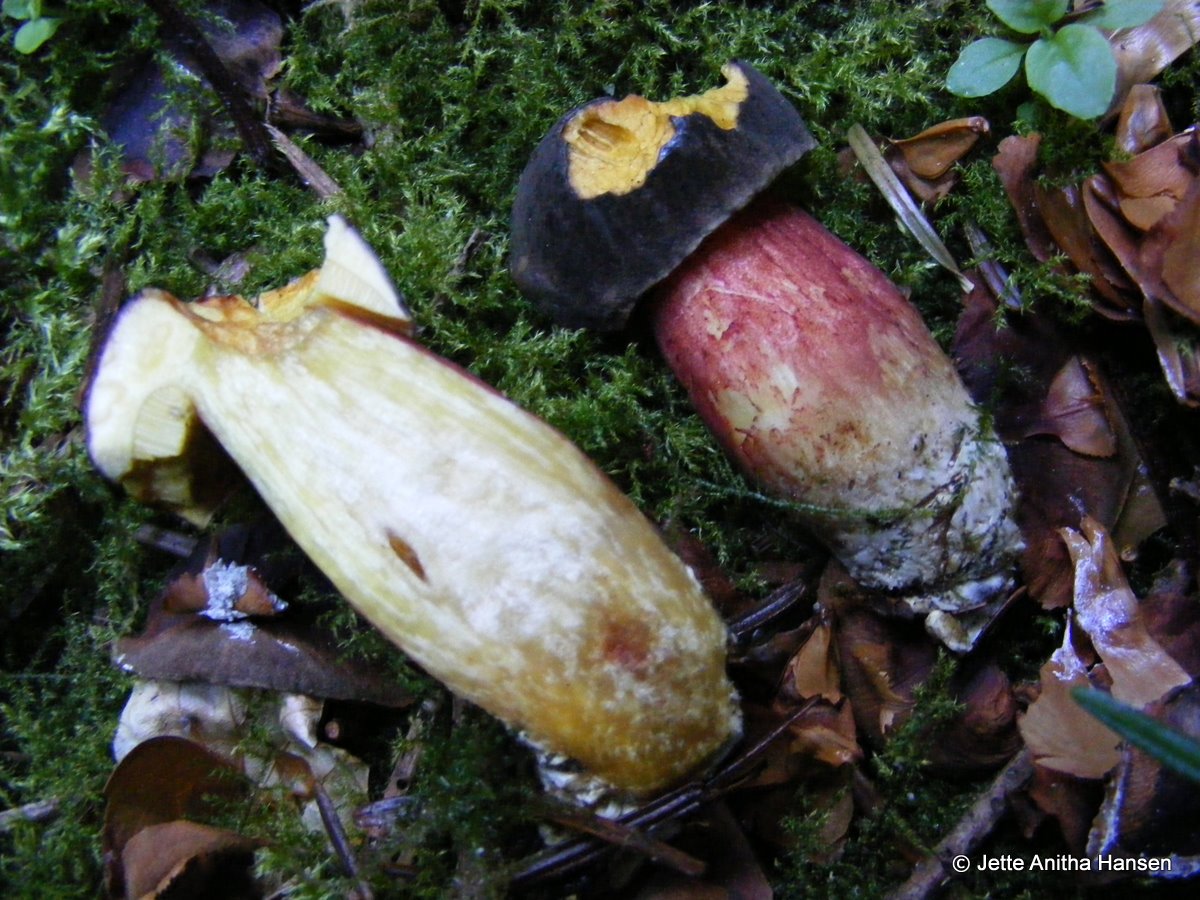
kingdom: Fungi
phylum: Basidiomycota
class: Agaricomycetes
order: Boletales
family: Boletaceae
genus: Xerocomellus
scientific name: Xerocomellus chrysenteron
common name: rødsprukken rørhat
